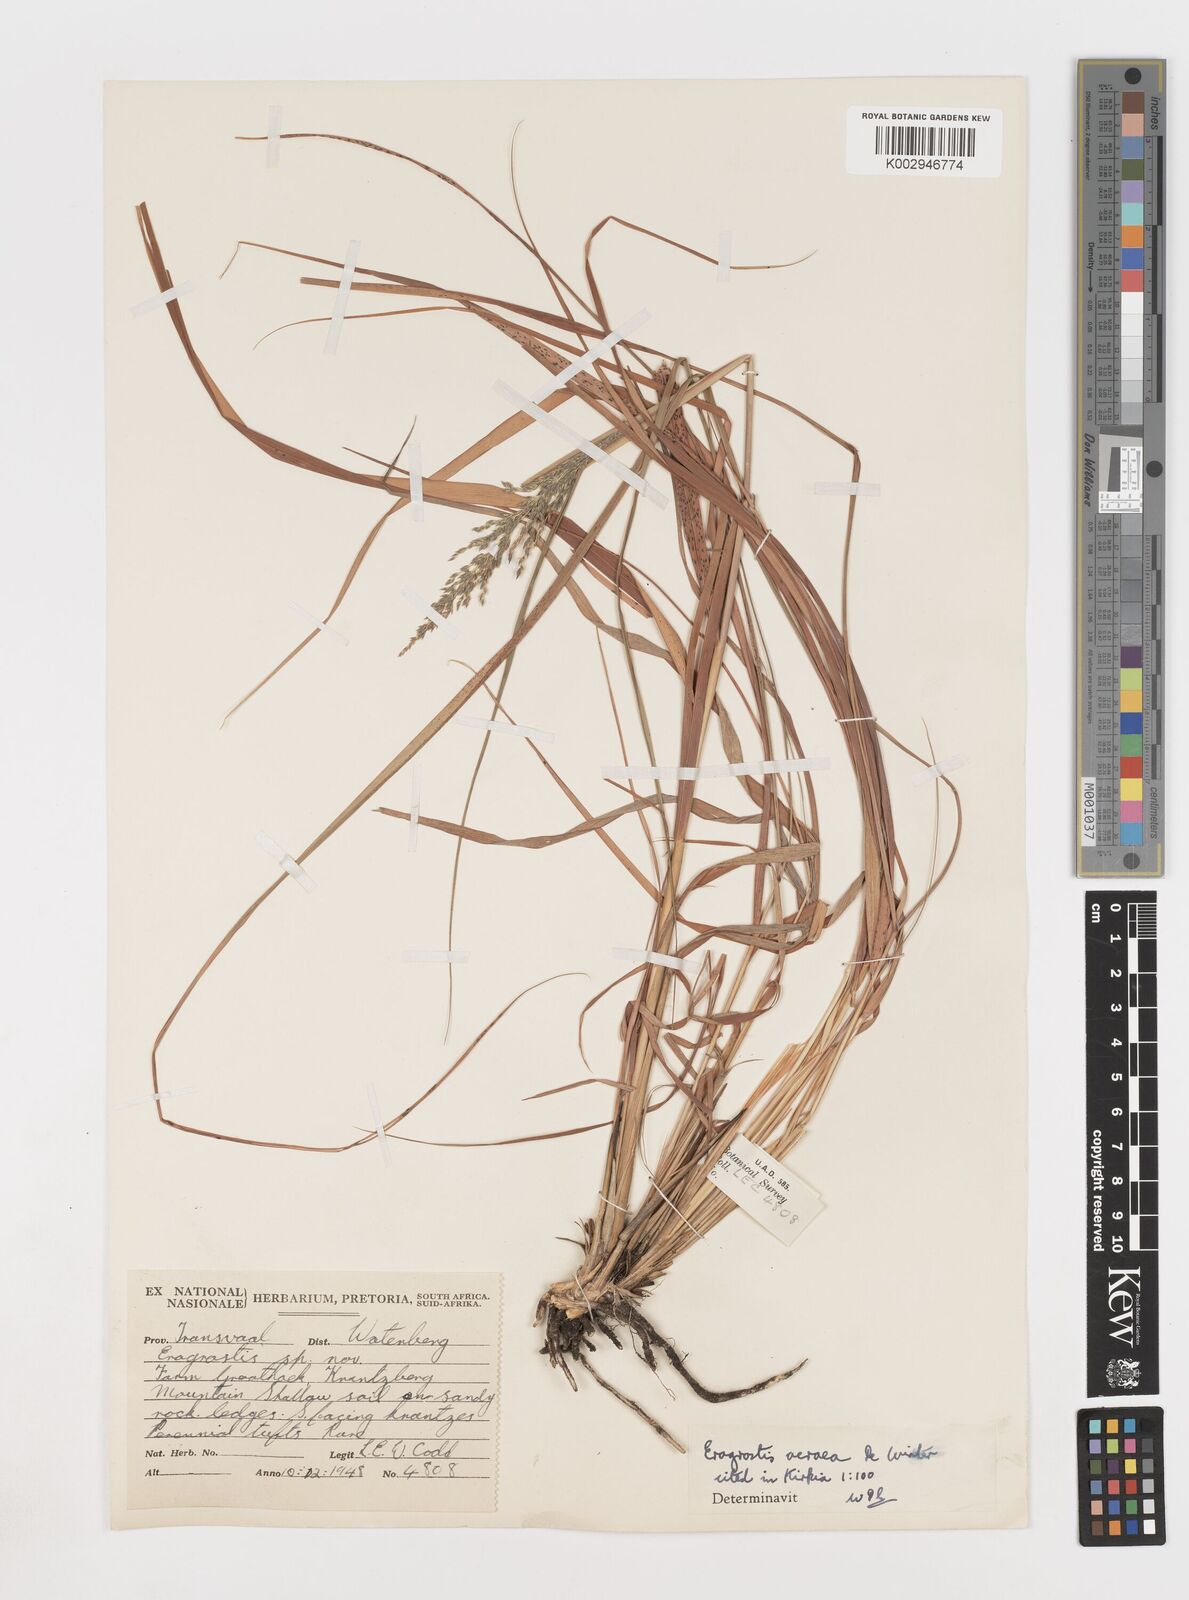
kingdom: Plantae
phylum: Tracheophyta
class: Liliopsida
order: Poales
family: Poaceae
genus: Eragrostis
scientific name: Eragrostis acraea
